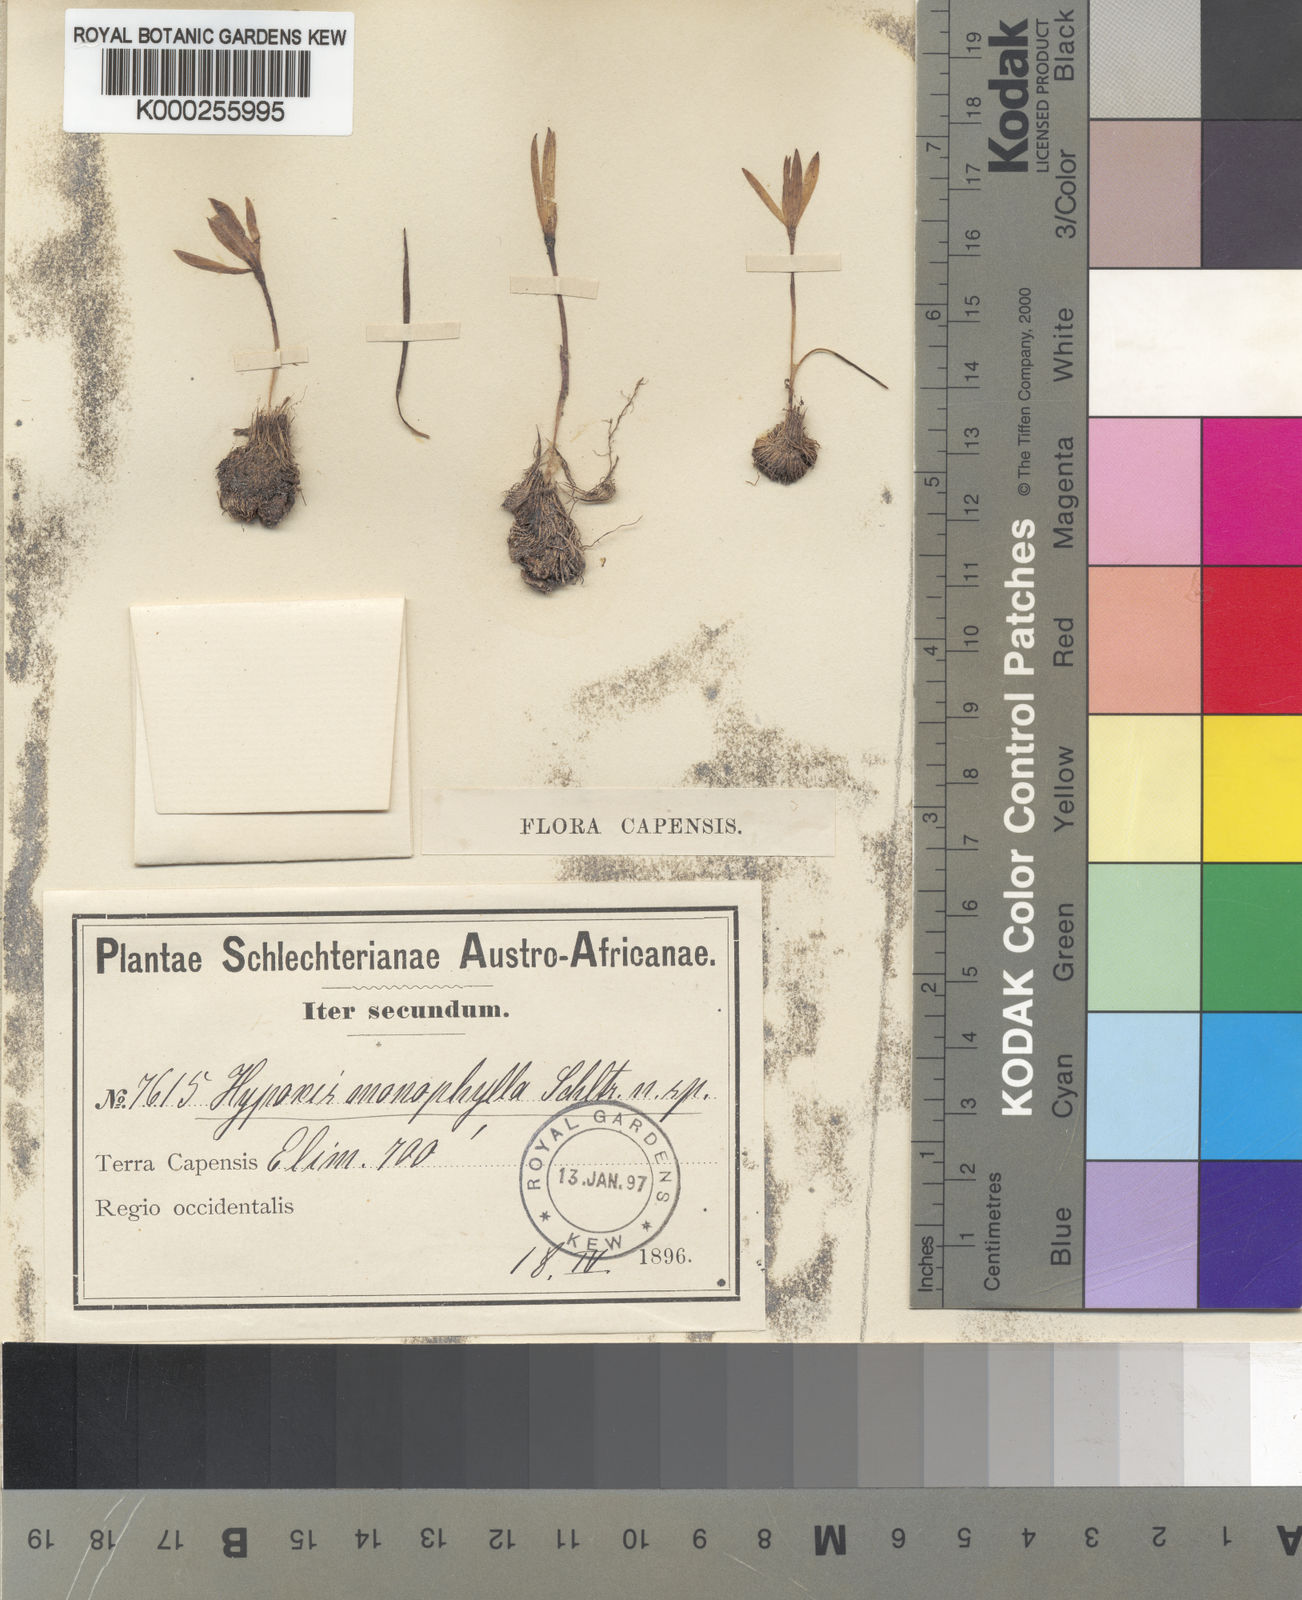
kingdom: Plantae
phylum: Tracheophyta
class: Liliopsida
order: Asparagales
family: Hypoxidaceae
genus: Pauridia
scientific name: Pauridia monophylla
